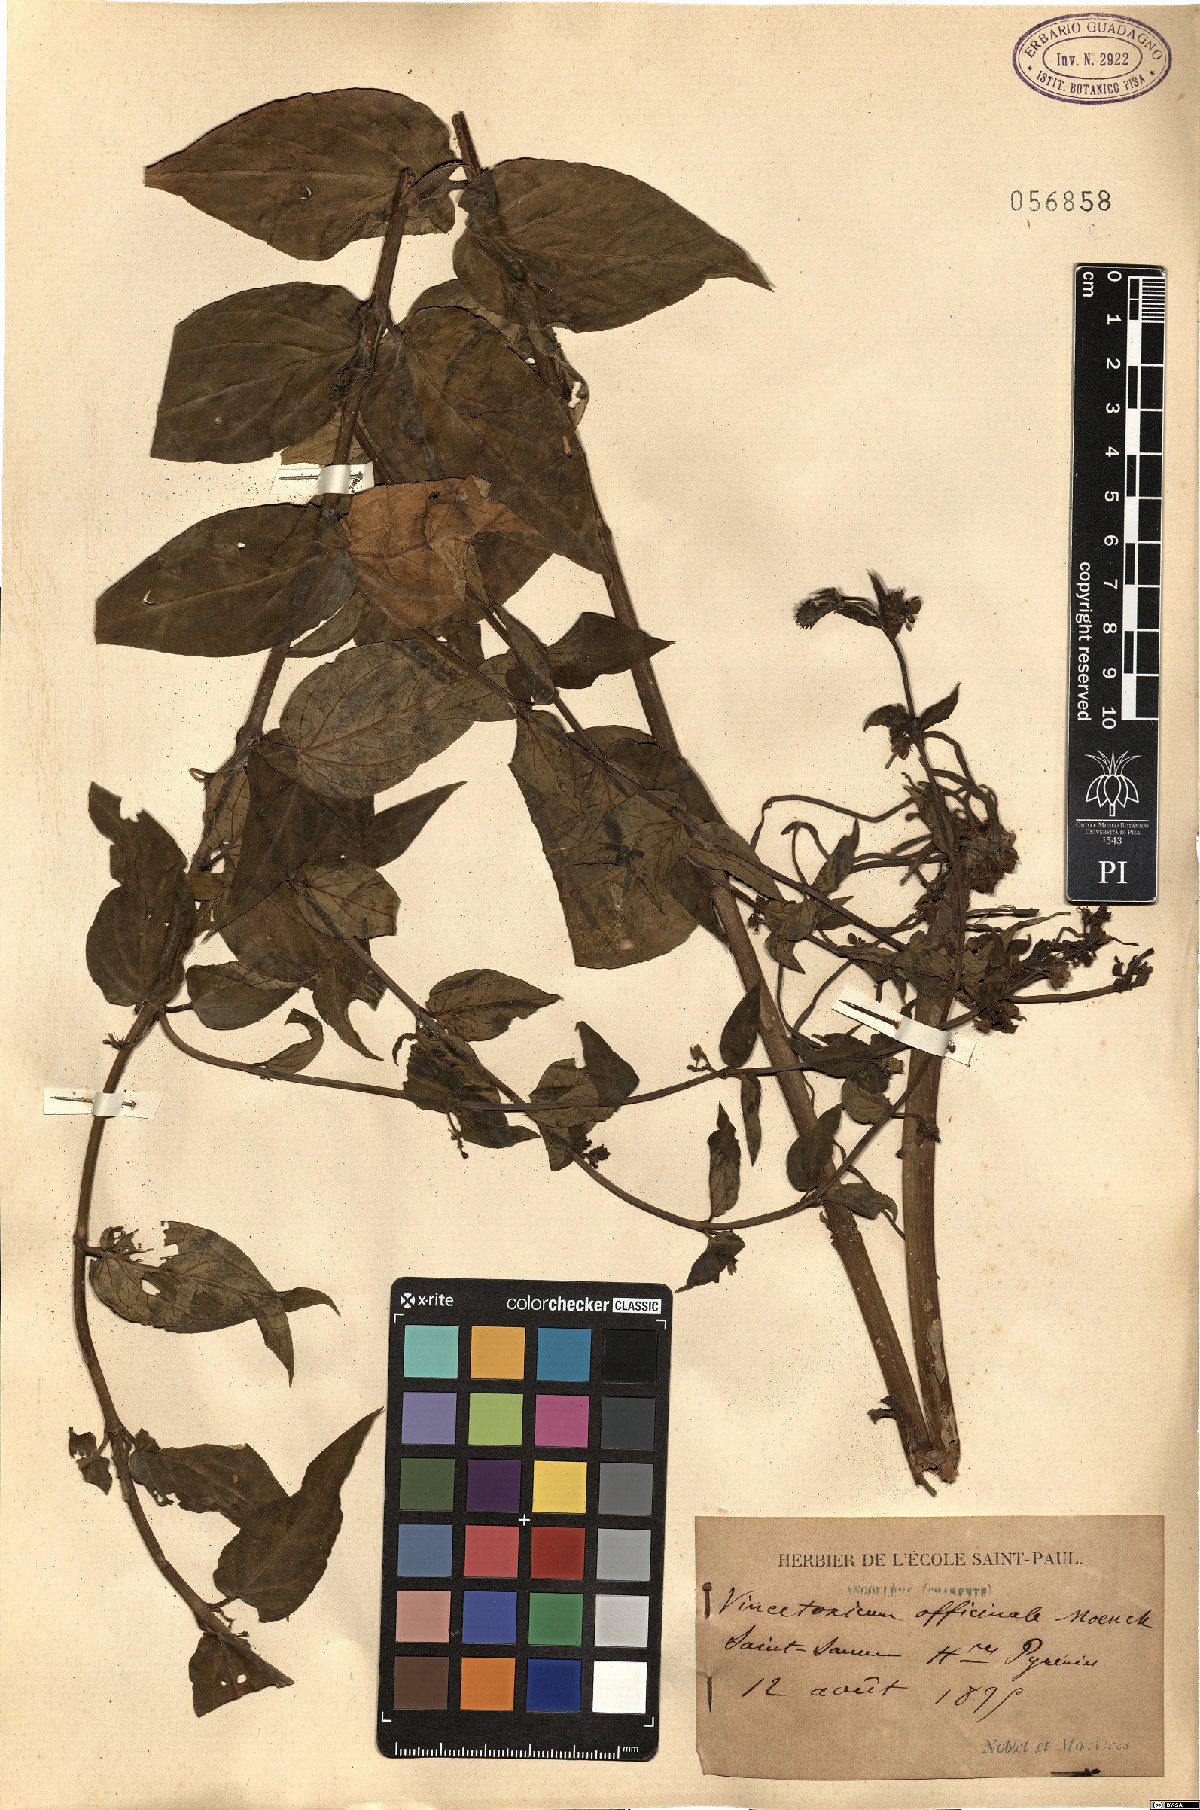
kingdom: Plantae
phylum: Tracheophyta
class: Magnoliopsida
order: Gentianales
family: Apocynaceae
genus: Vincetoxicum
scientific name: Vincetoxicum hirundinaria
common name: White swallowwort
